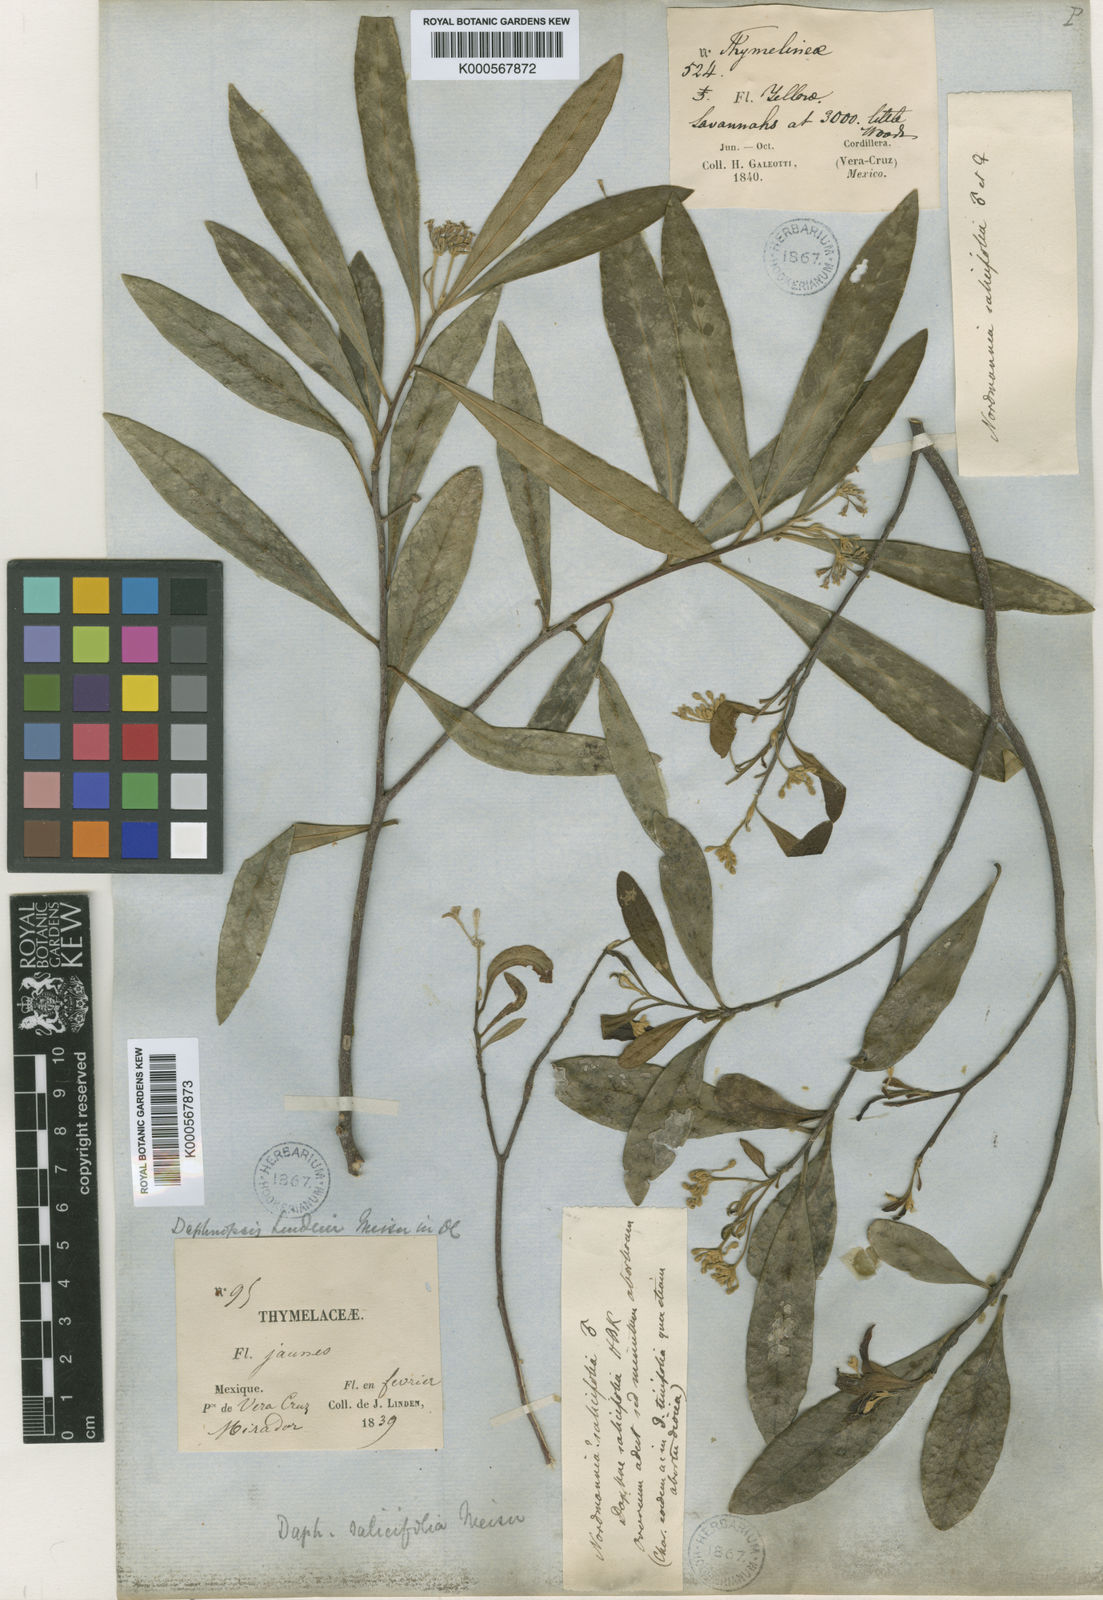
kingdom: Plantae
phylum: Tracheophyta
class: Magnoliopsida
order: Malvales
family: Thymelaeaceae
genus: Daphnopsis
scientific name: Daphnopsis americana
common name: Maho
